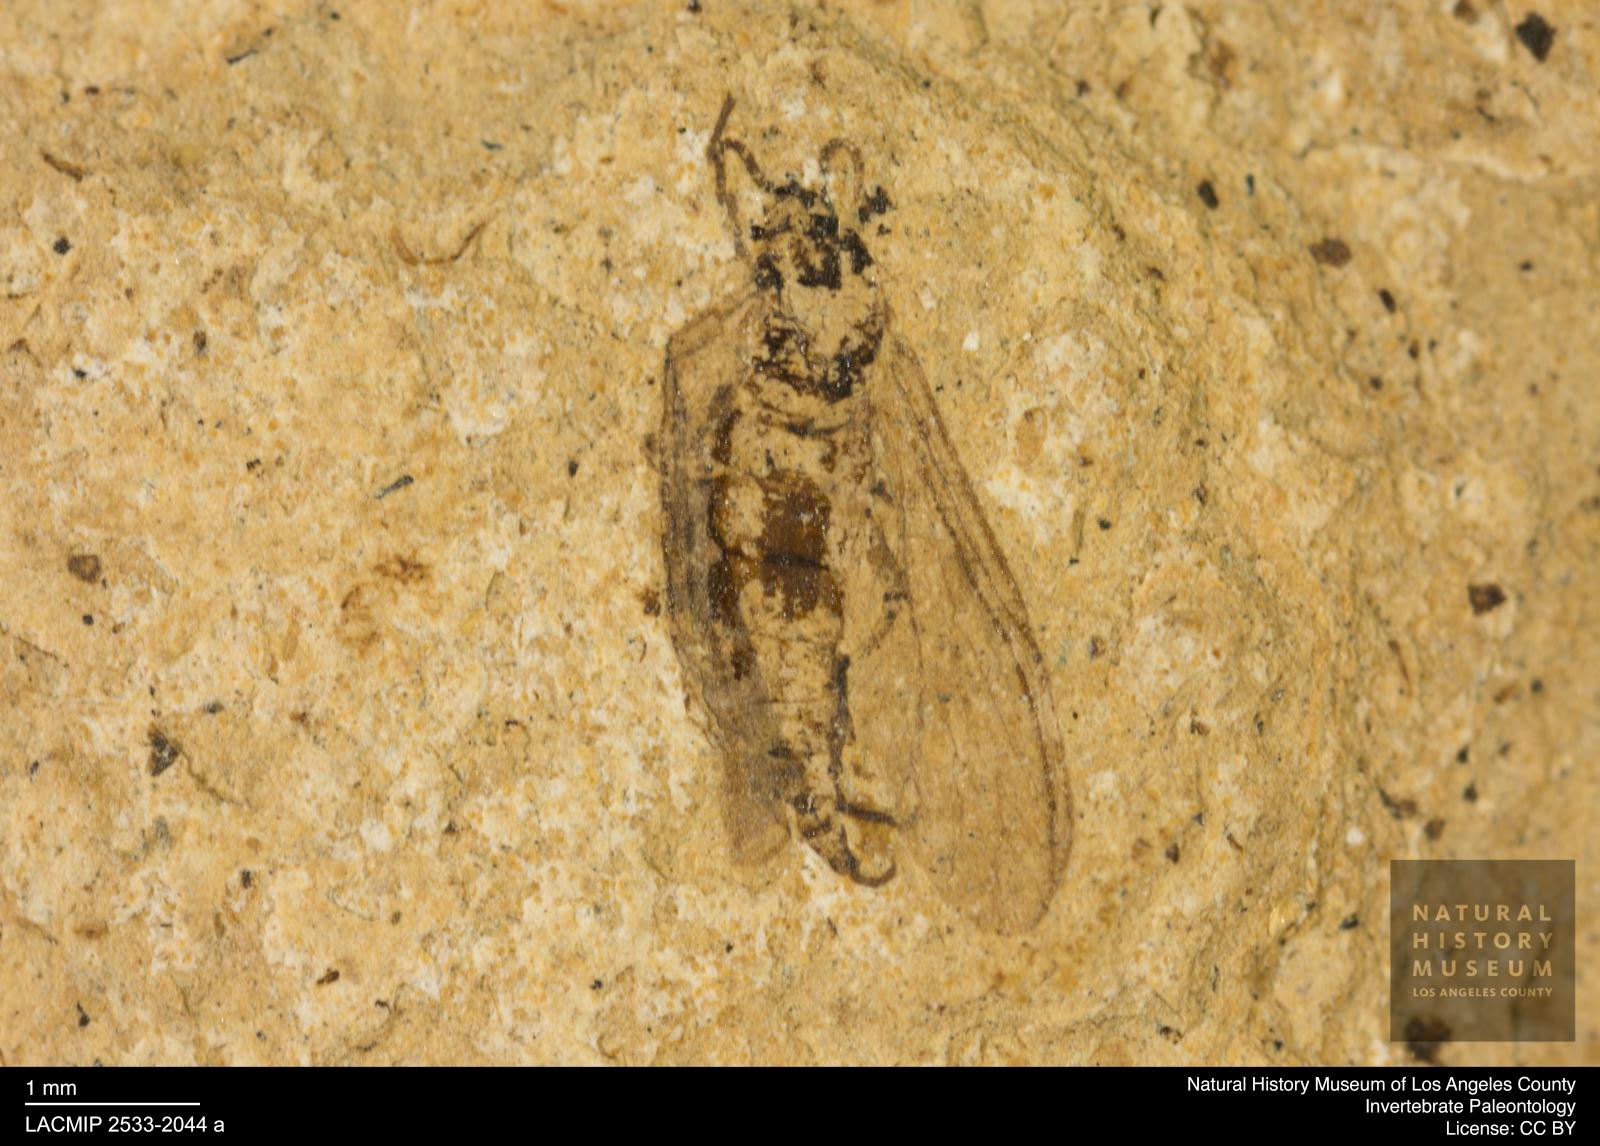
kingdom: Animalia
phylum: Arthropoda
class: Insecta
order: Diptera
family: Sciaridae
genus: Sciara
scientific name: Sciara winnertzii
